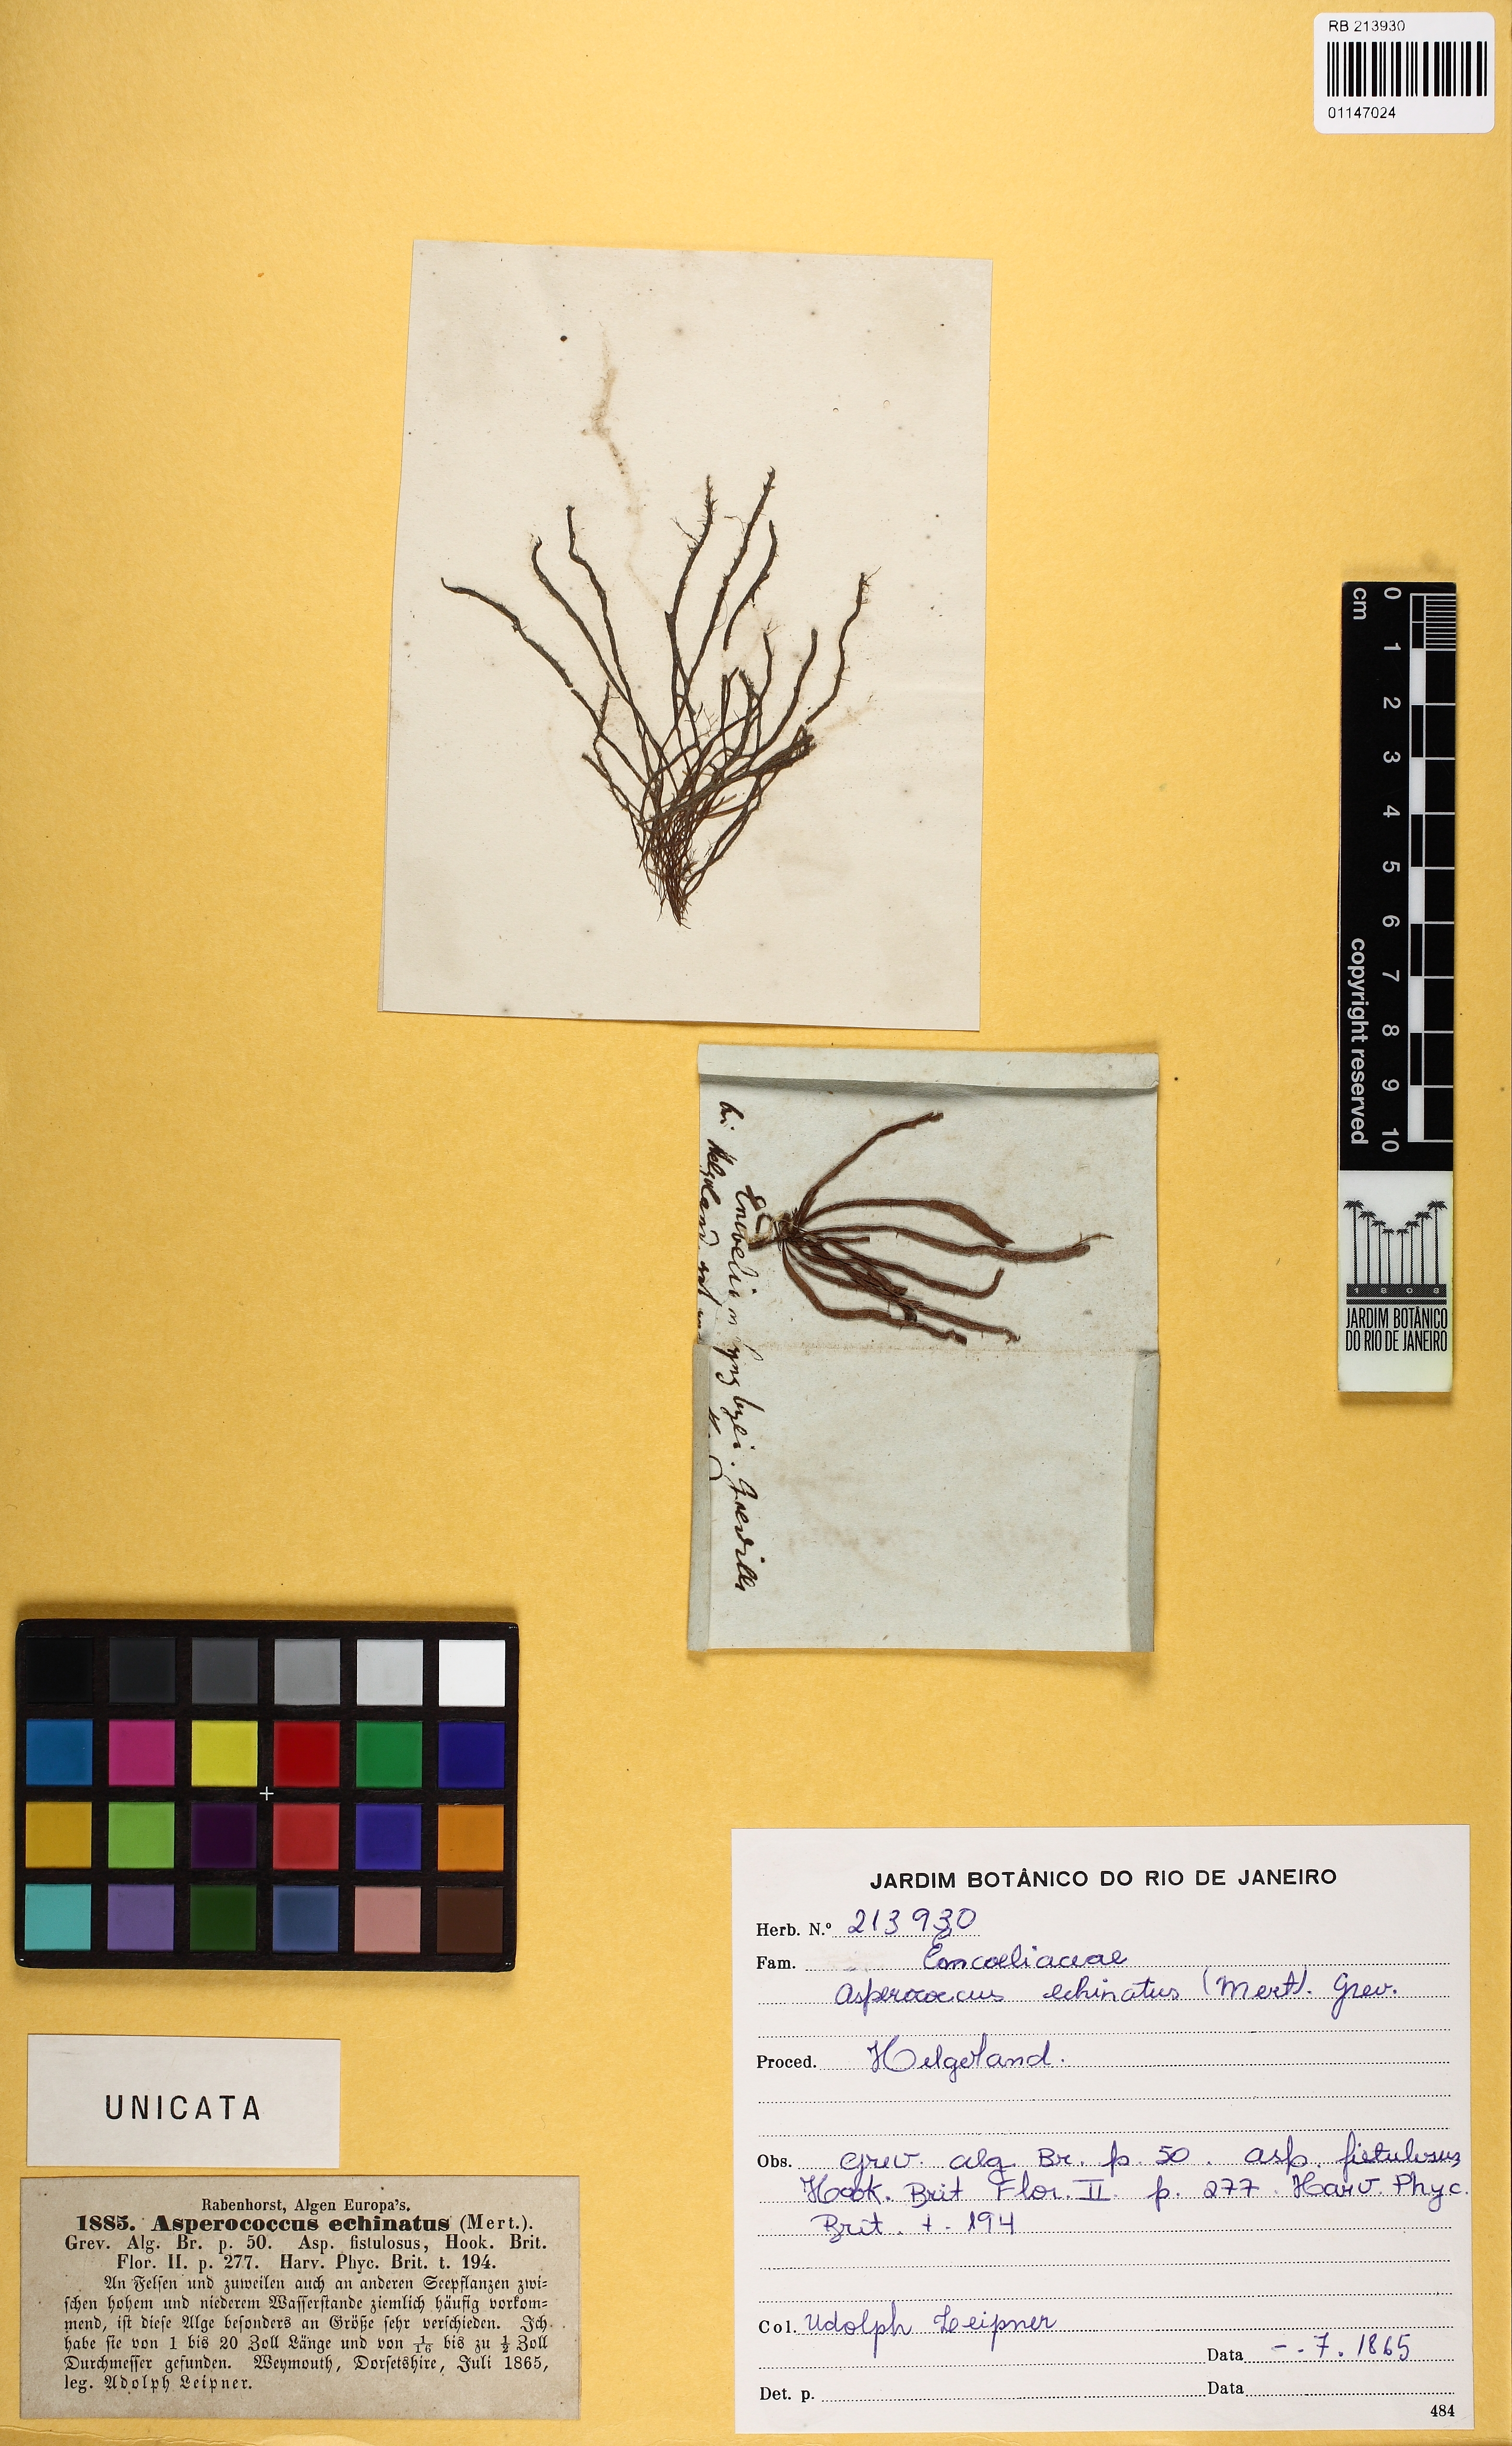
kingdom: Chromista
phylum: Ochrophyta
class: Phaeophyceae
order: Ectocarpales
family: Chordariaceae
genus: Asperococcus
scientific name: Asperococcus fistulosus
